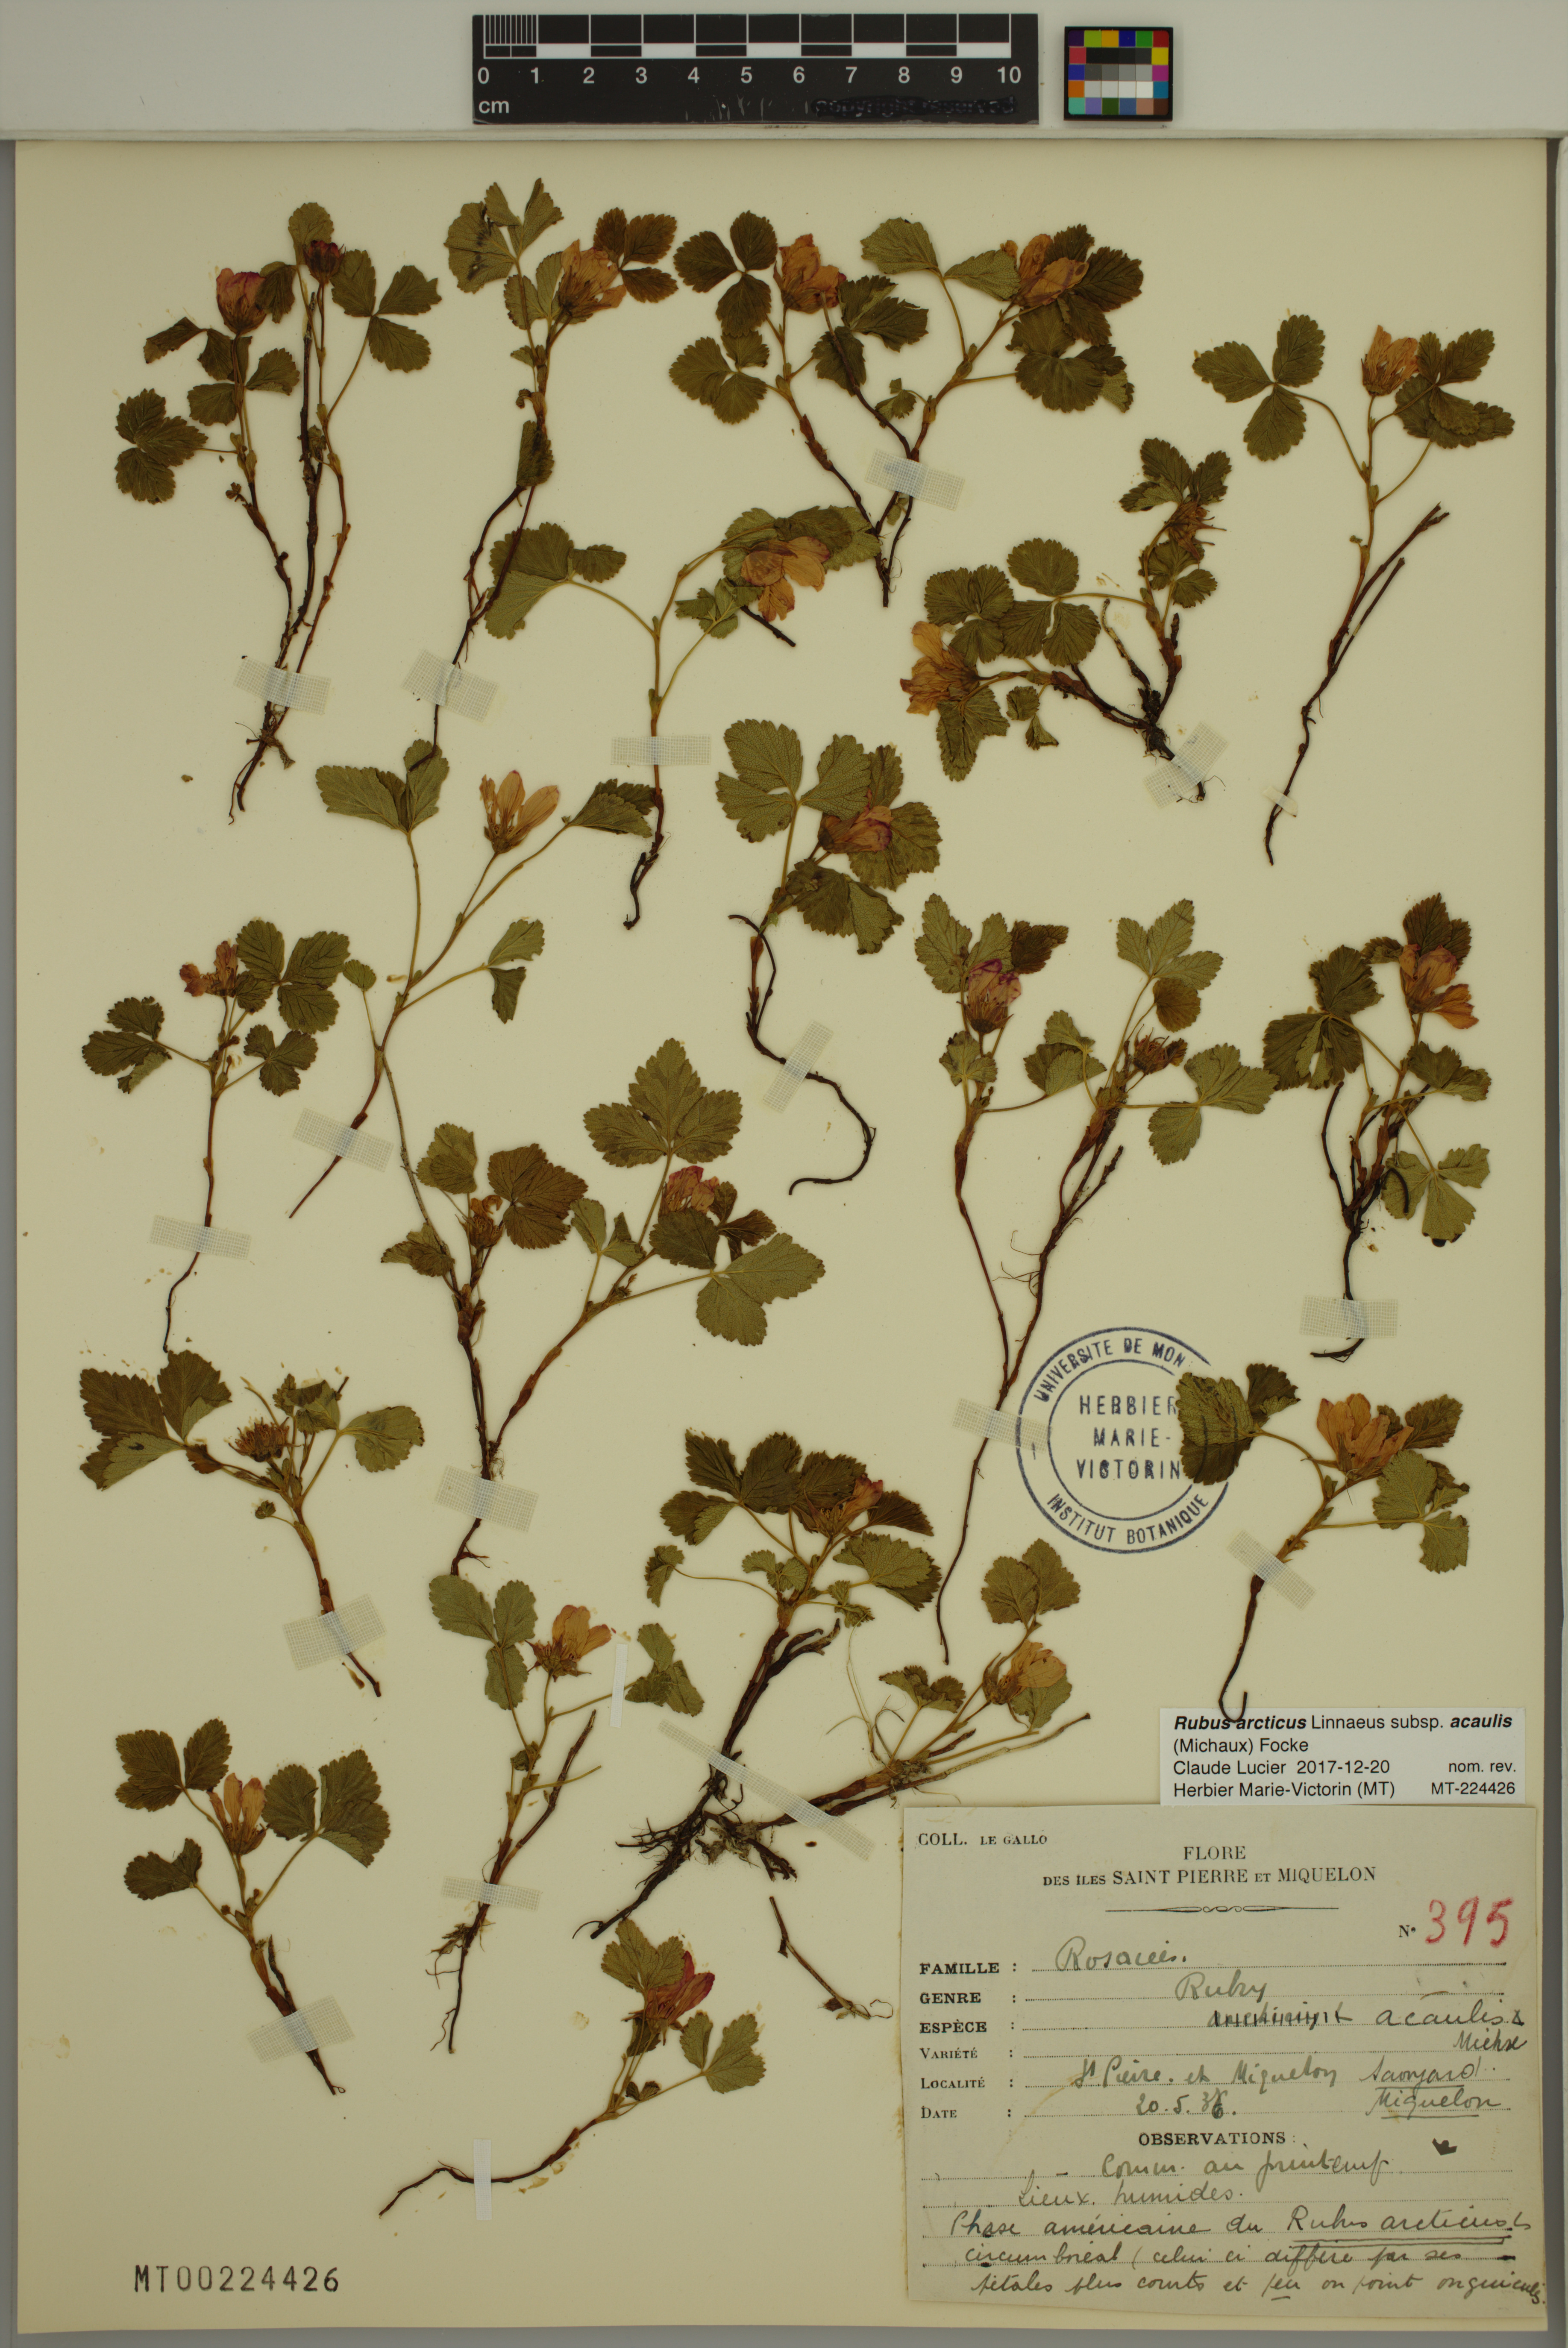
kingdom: Plantae
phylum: Tracheophyta
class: Magnoliopsida
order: Rosales
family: Rosaceae
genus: Rubus
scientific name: Rubus arcticus
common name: Arctic bramble
